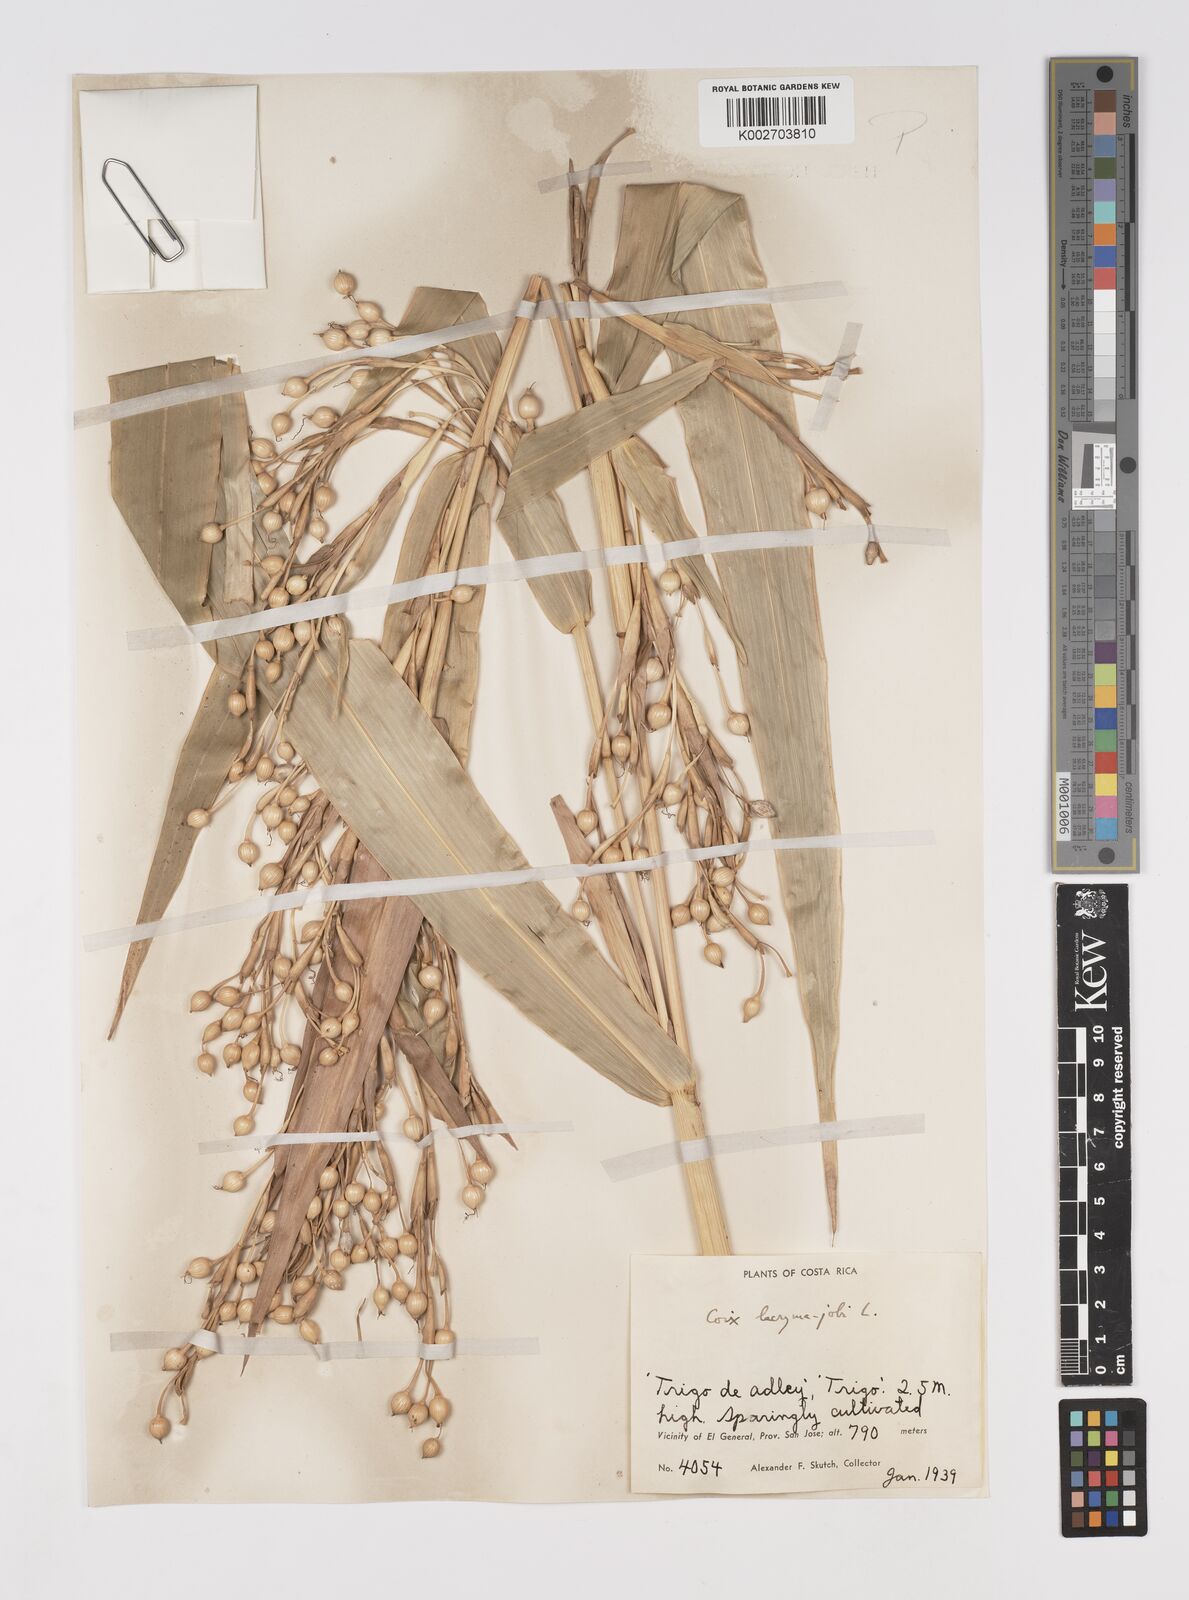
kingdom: Plantae
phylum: Tracheophyta
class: Liliopsida
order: Poales
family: Poaceae
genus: Coix
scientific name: Coix lacryma-jobi
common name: Job's tears
